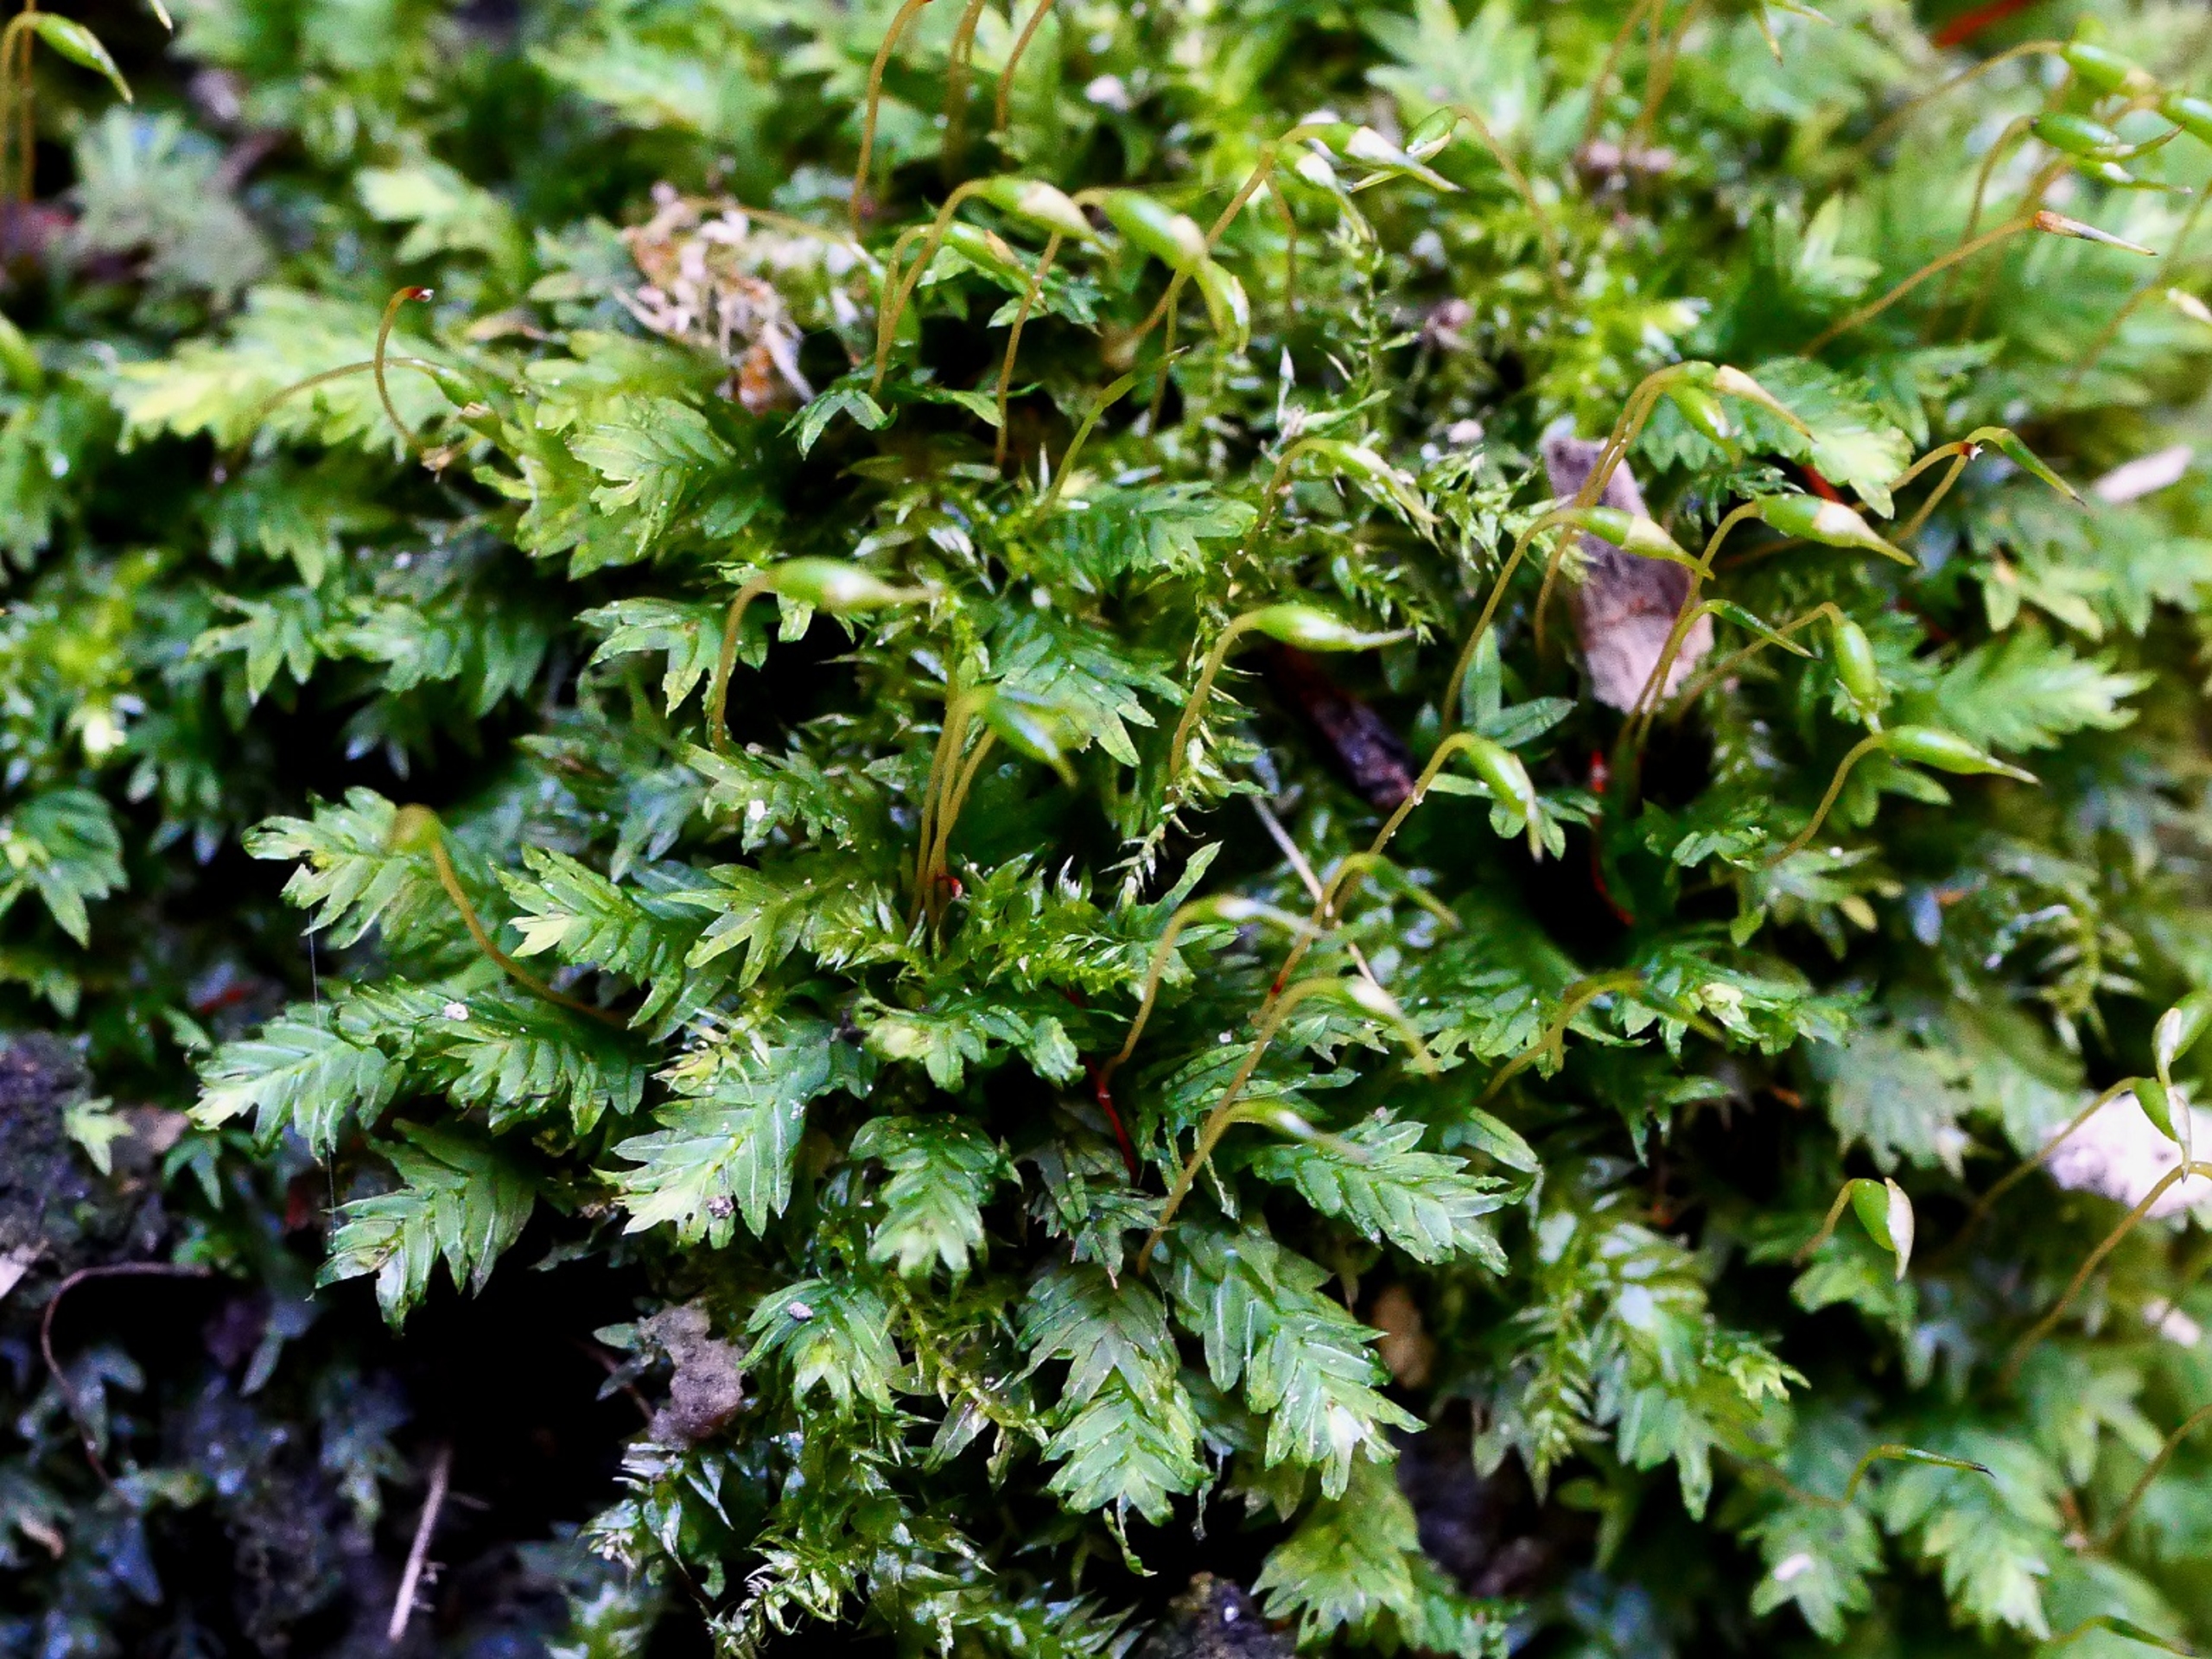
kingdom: Plantae
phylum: Bryophyta
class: Bryopsida
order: Dicranales
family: Fissidentaceae
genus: Fissidens
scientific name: Fissidens taxifolius
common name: Taksbladet rademos
